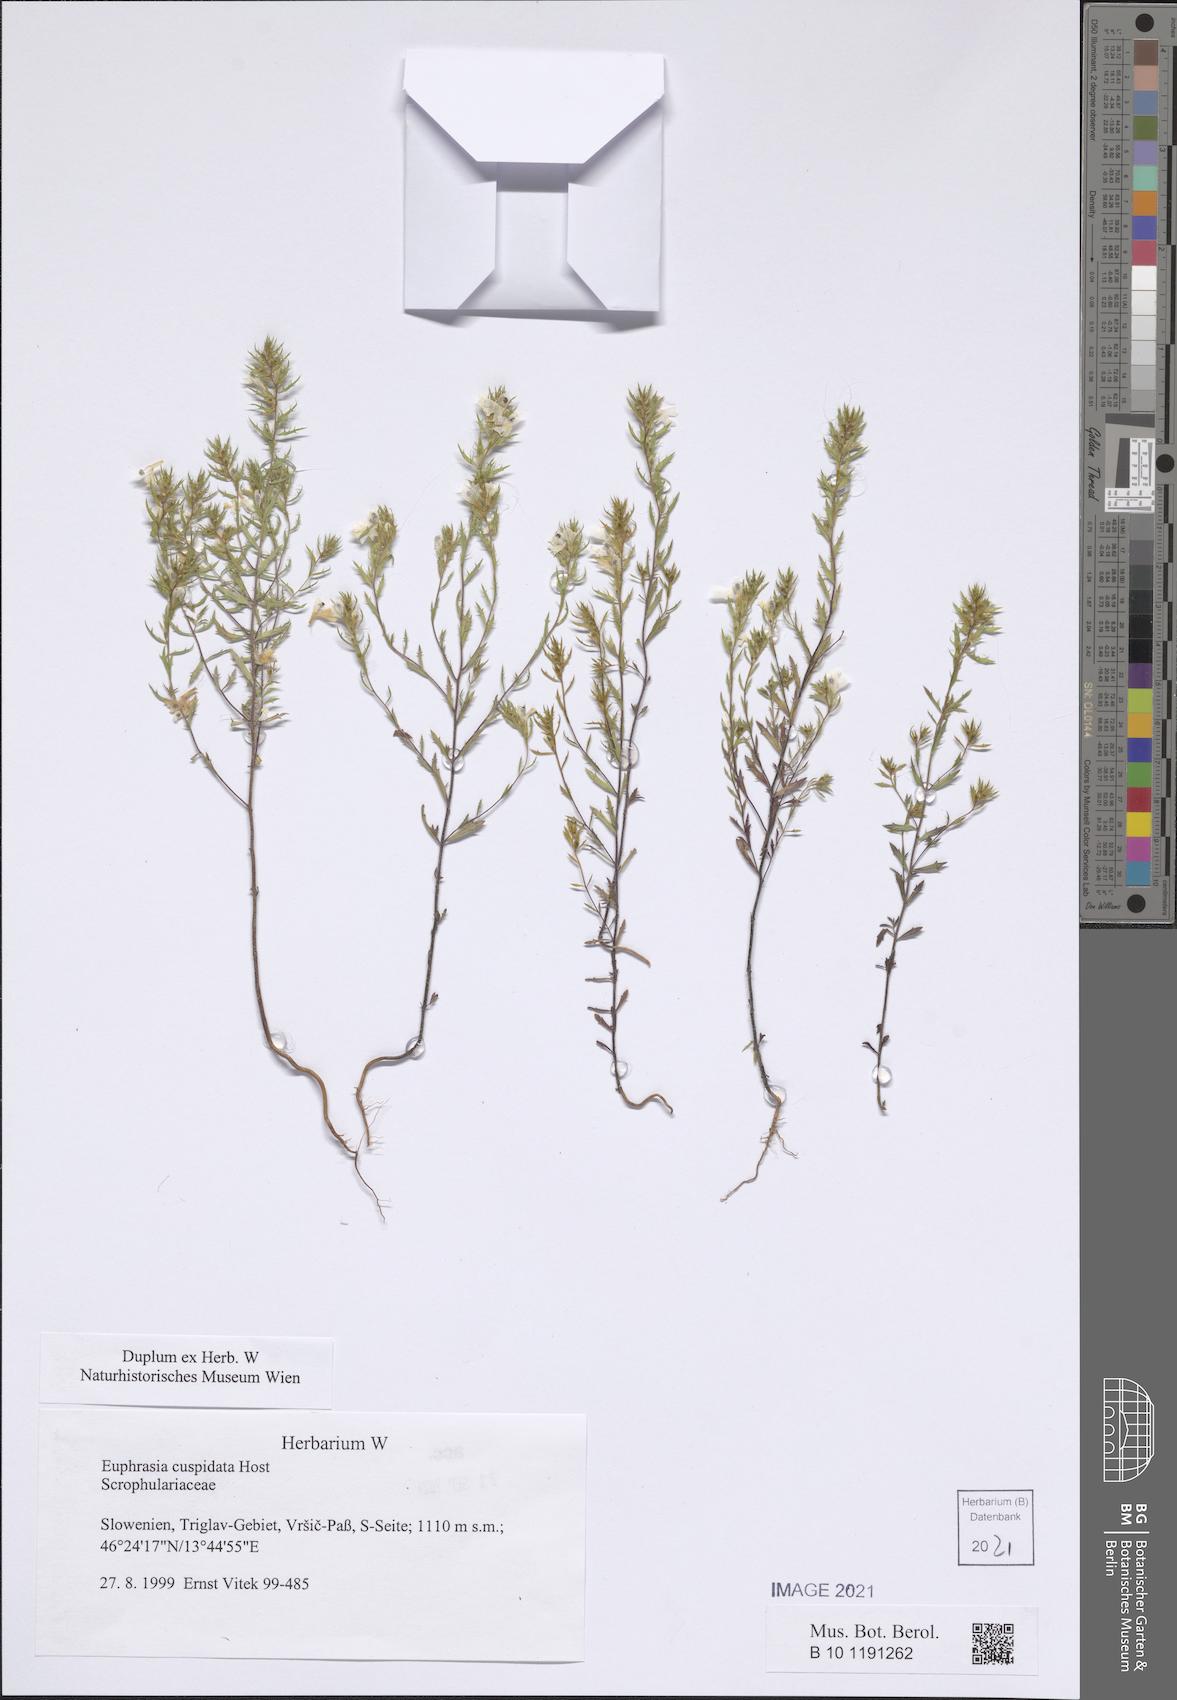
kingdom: Plantae
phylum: Tracheophyta
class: Magnoliopsida
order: Lamiales
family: Orobanchaceae
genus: Euphrasia
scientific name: Euphrasia cuspidata
